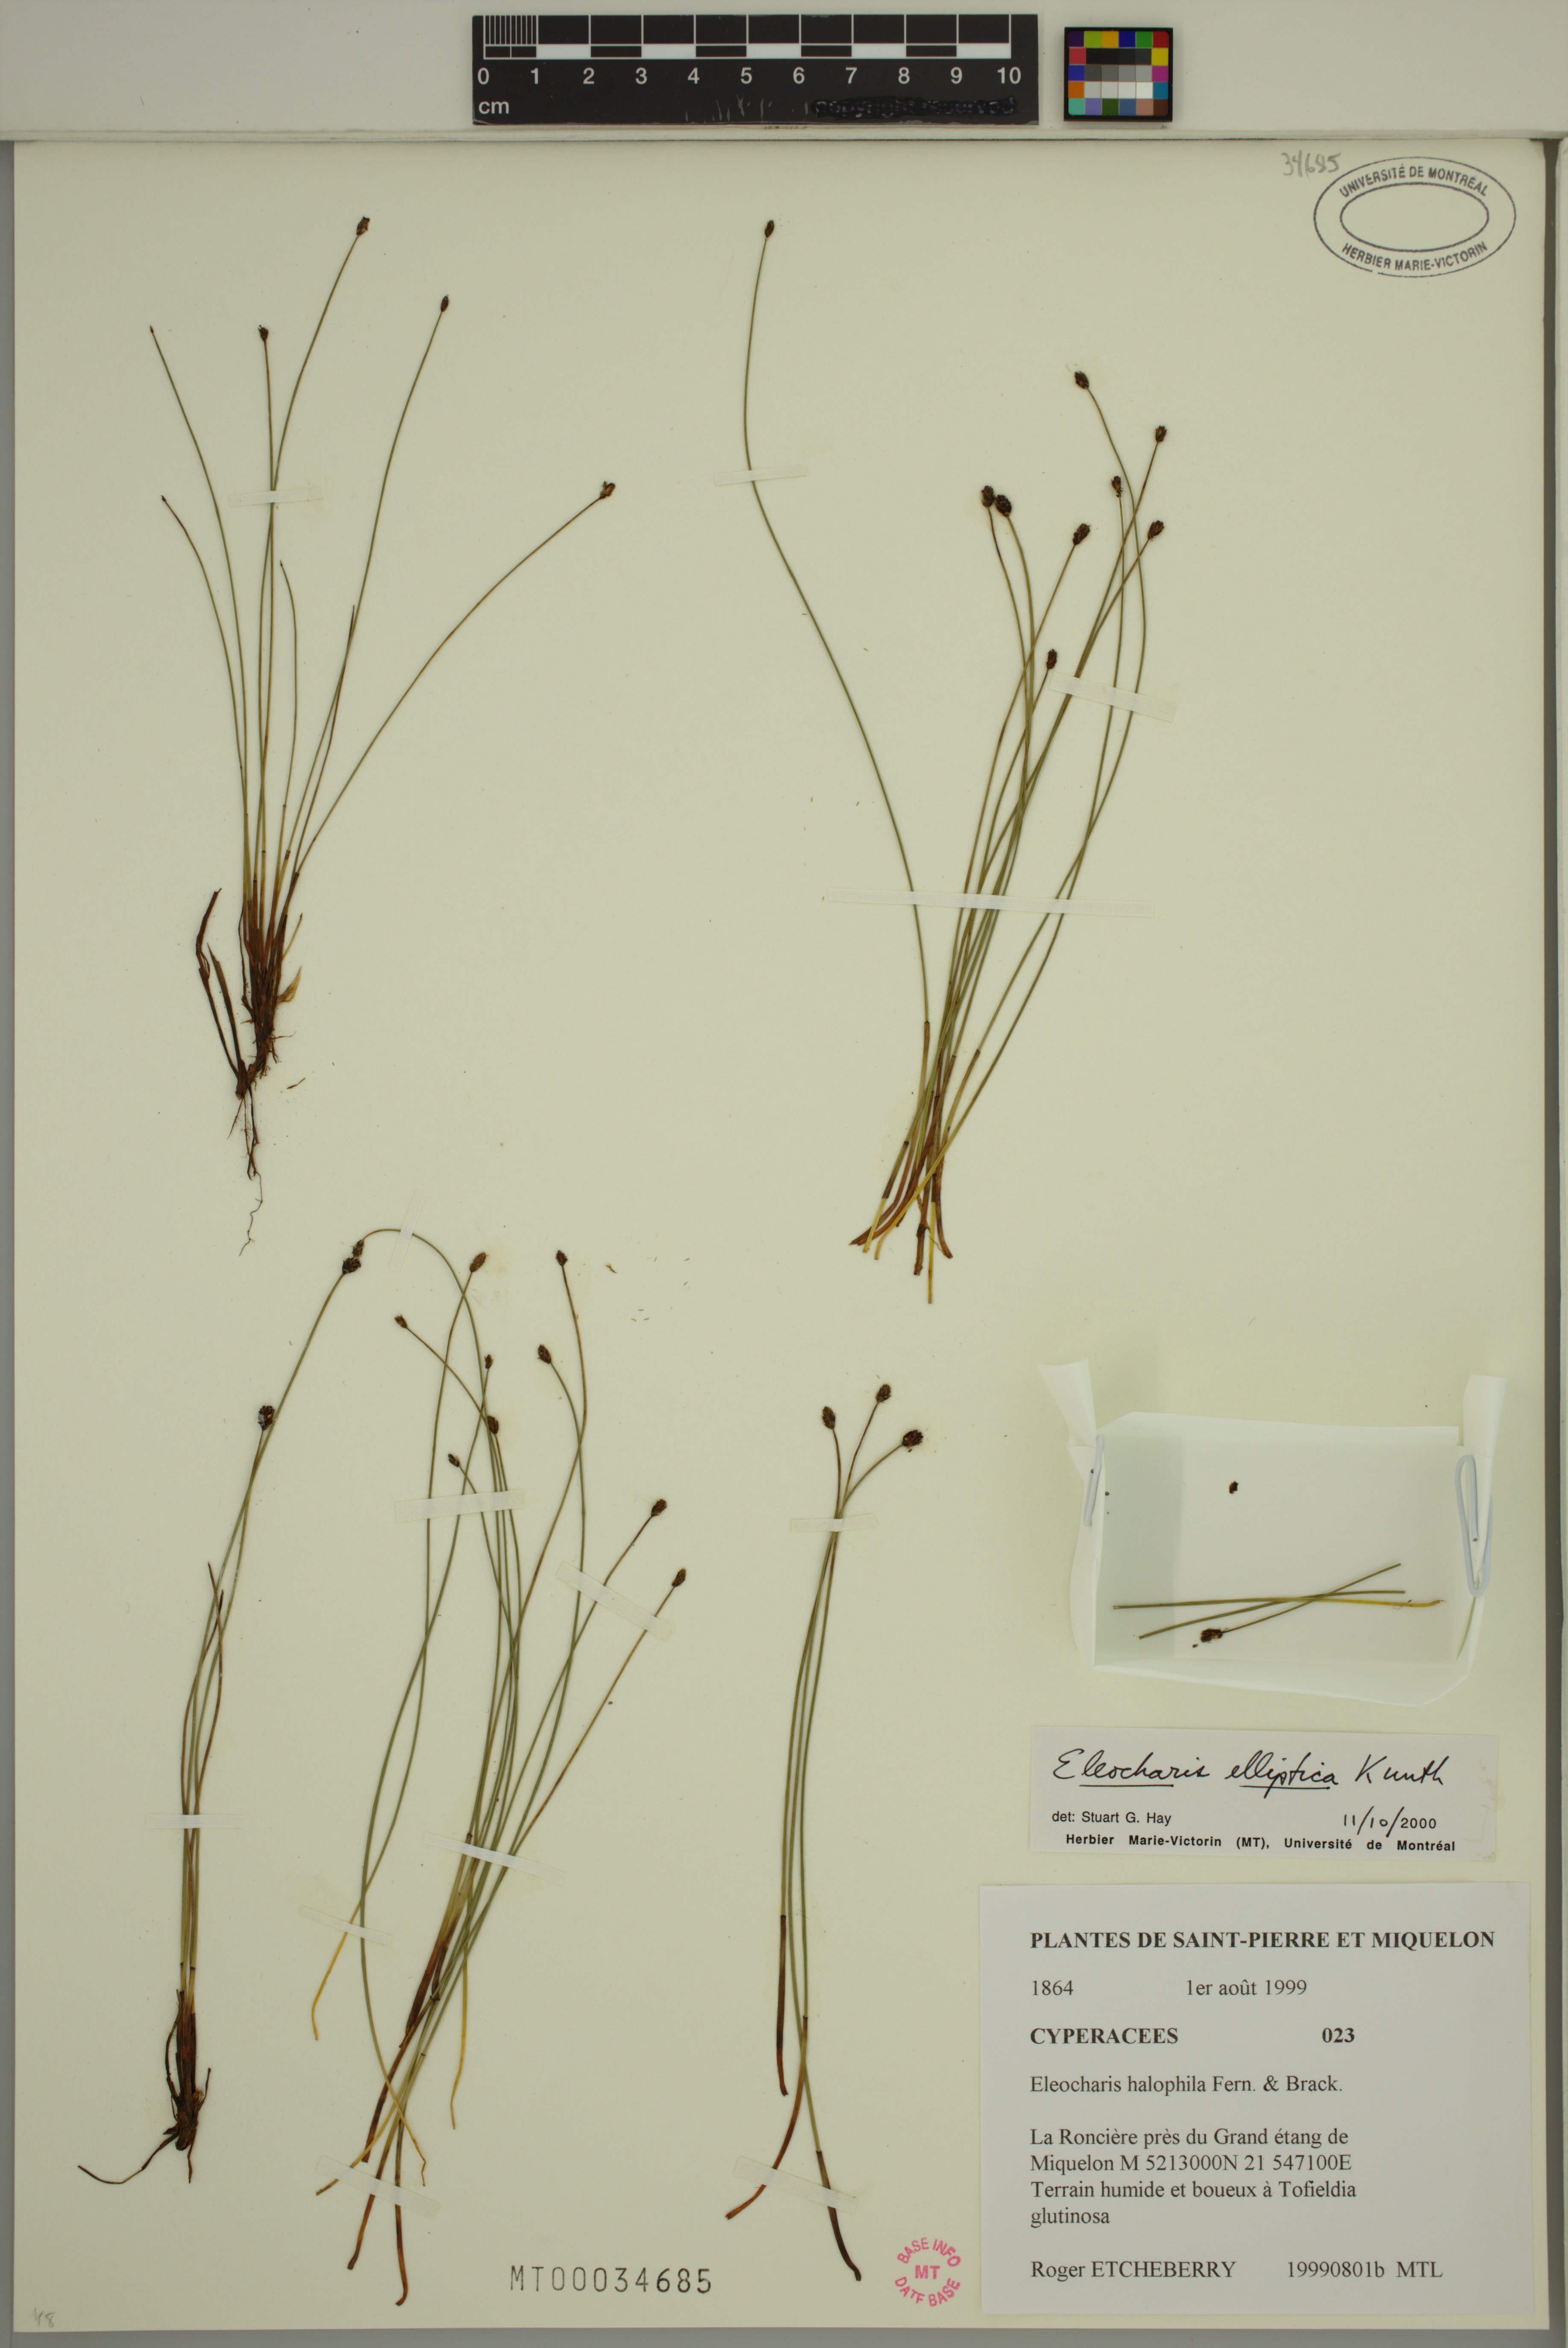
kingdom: Plantae
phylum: Tracheophyta
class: Liliopsida
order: Poales
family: Cyperaceae
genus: Eleocharis
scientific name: Eleocharis elliptica
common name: Capitate spikerush
